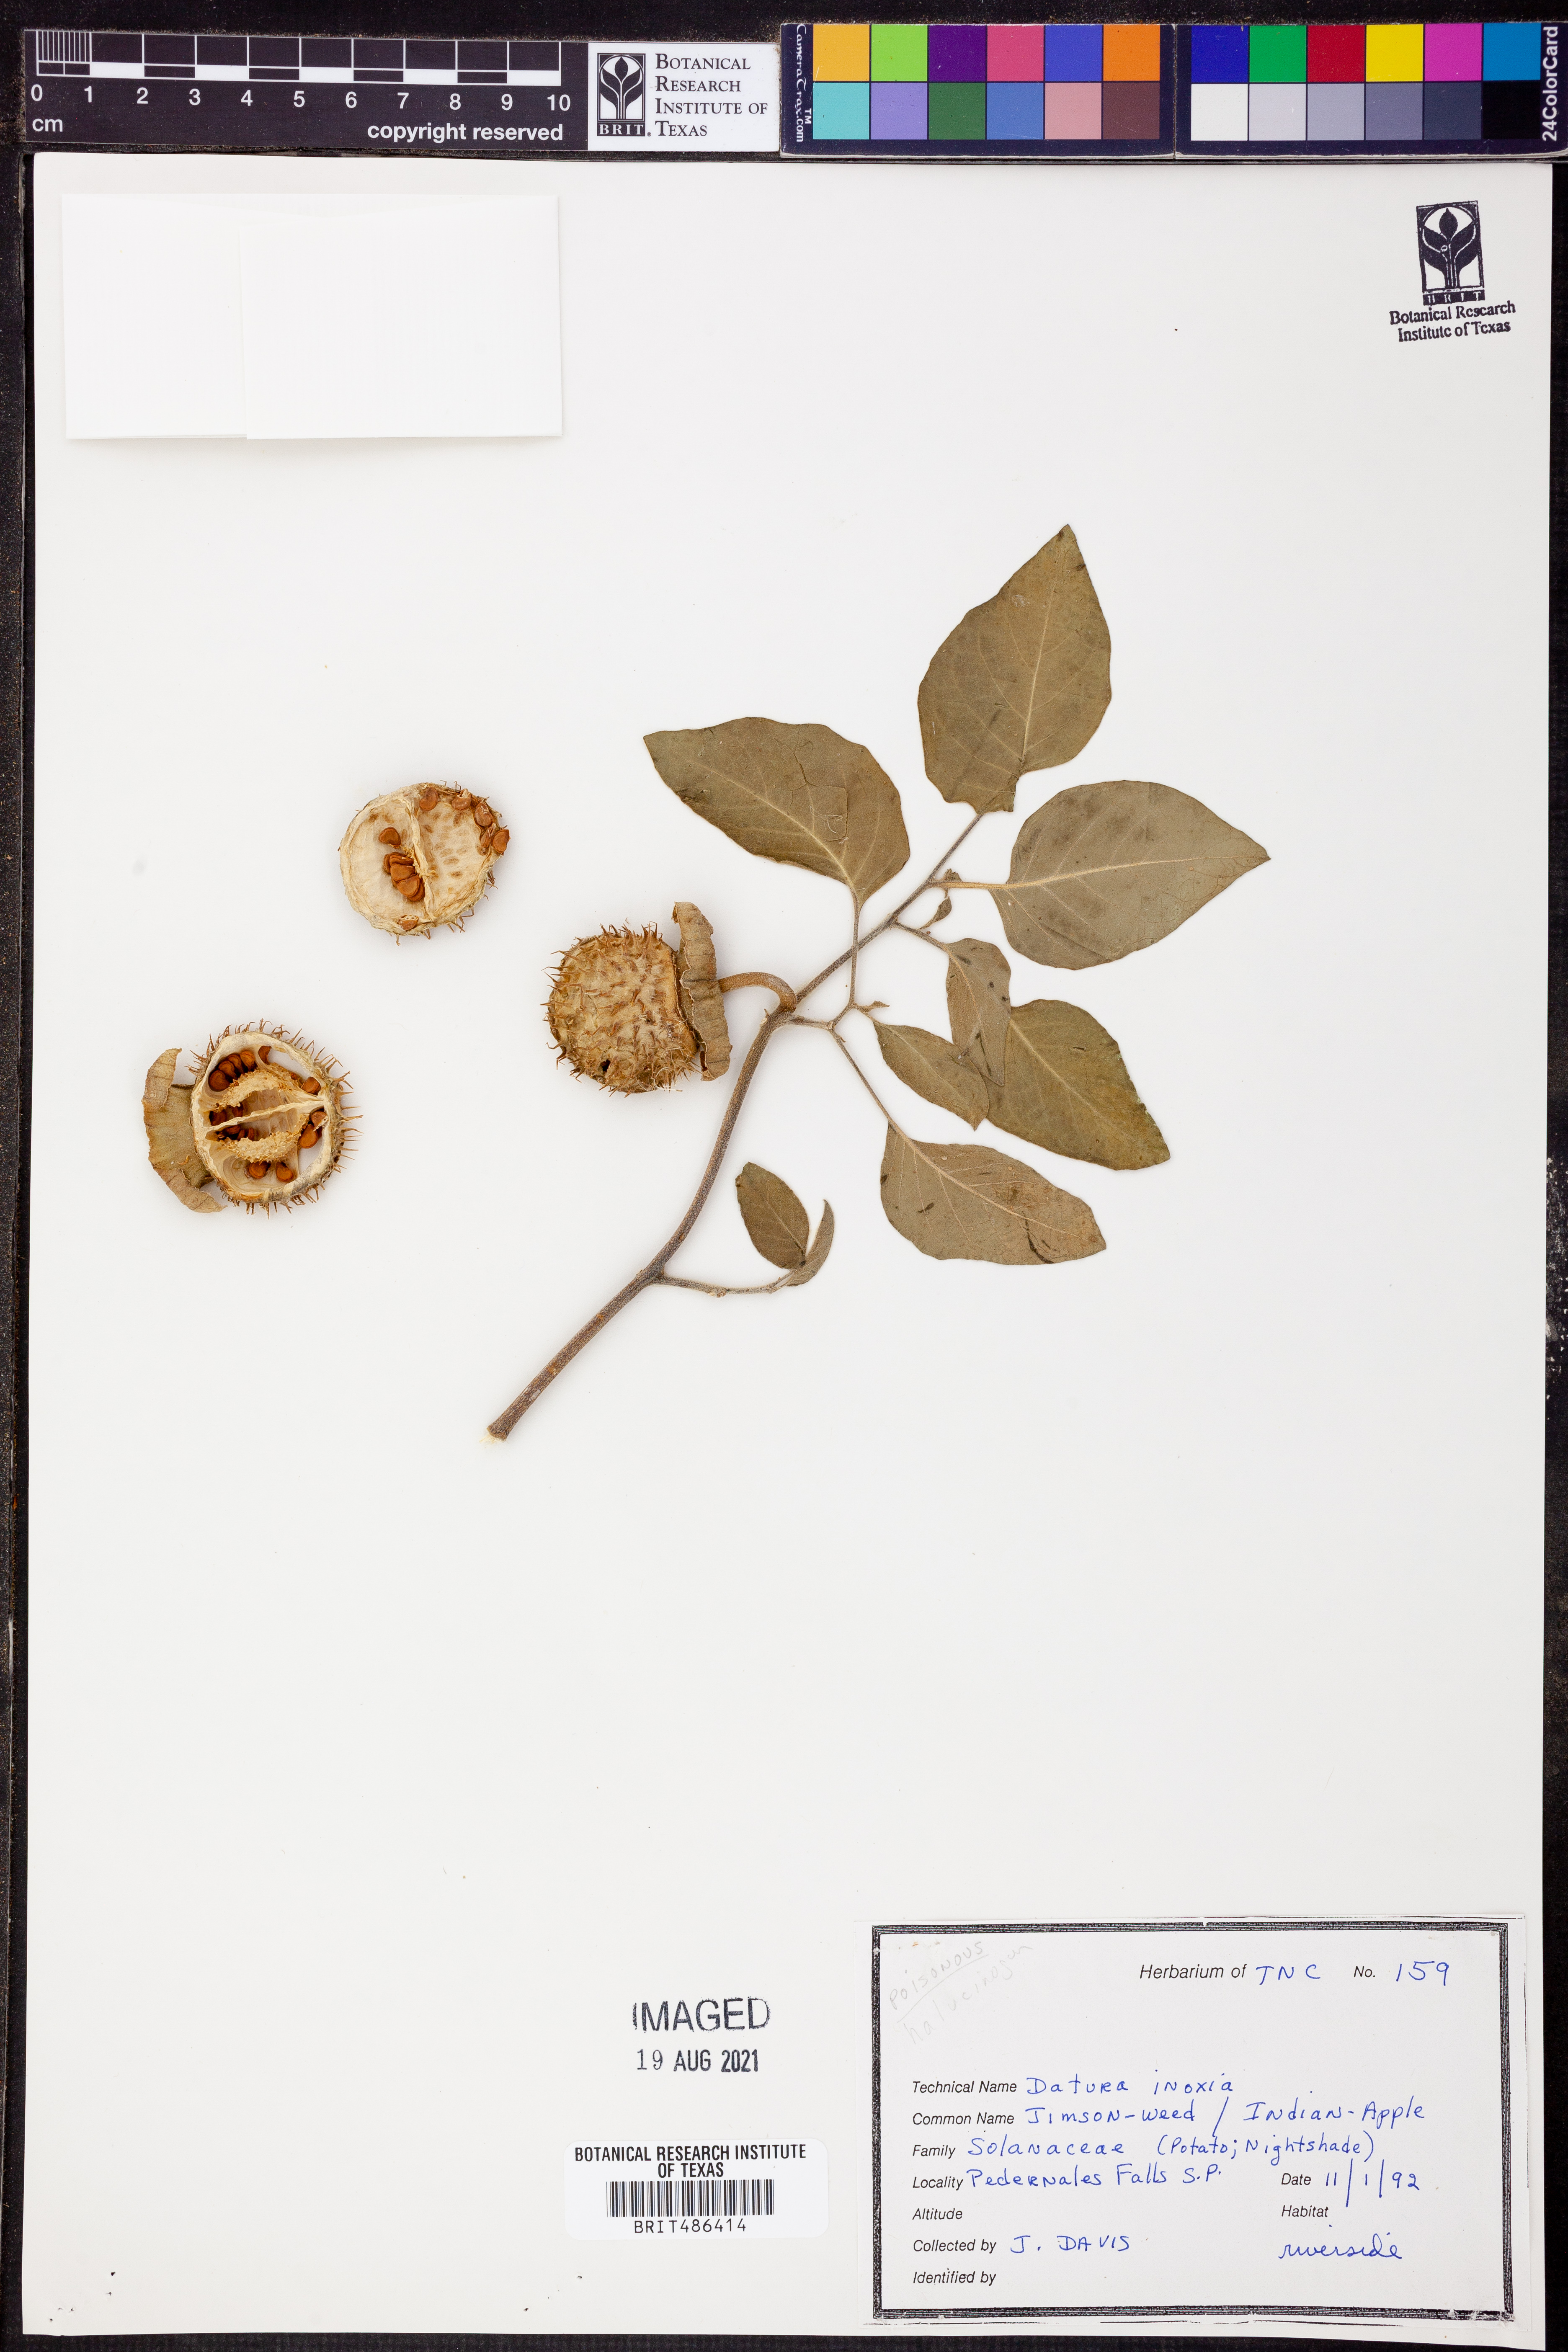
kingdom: Plantae
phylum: Tracheophyta
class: Magnoliopsida
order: Solanales
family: Solanaceae
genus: Datura
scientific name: Datura innoxia
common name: Downy thorn-apple
